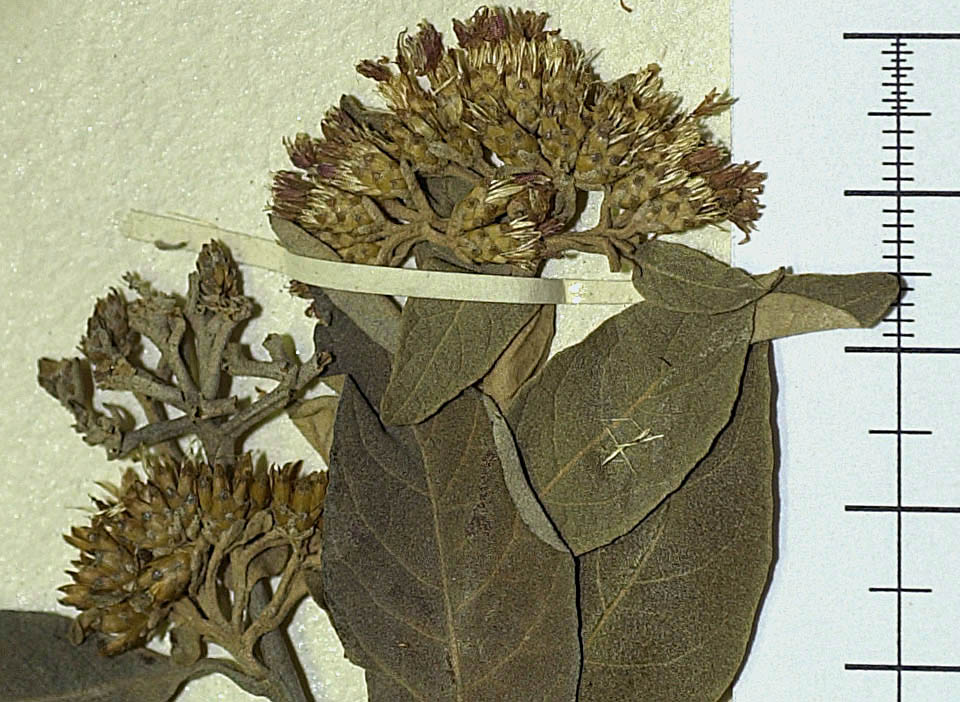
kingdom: Plantae
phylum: Tracheophyta
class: Magnoliopsida
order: Asterales
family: Asteraceae
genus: Piptocoma
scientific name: Piptocoma antillana
